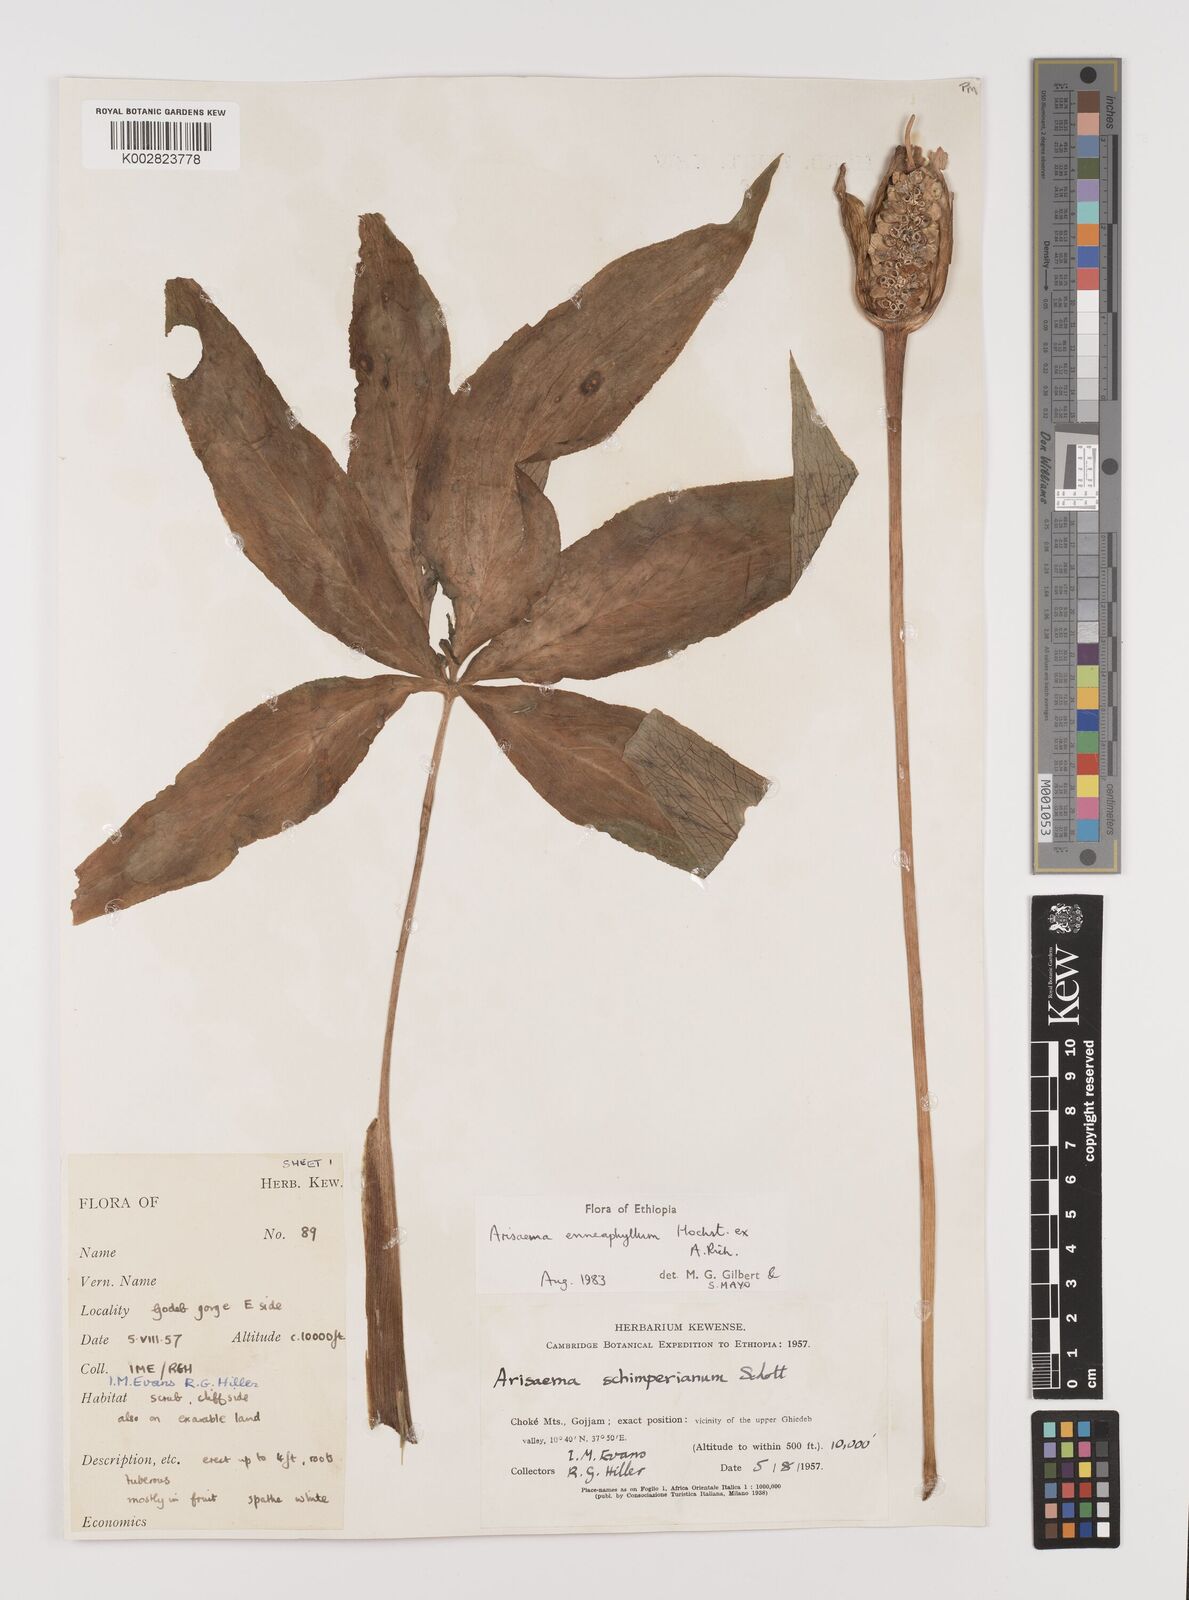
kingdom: Plantae
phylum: Tracheophyta
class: Liliopsida
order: Alismatales
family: Araceae
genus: Arisaema
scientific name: Arisaema enneaphyllum
